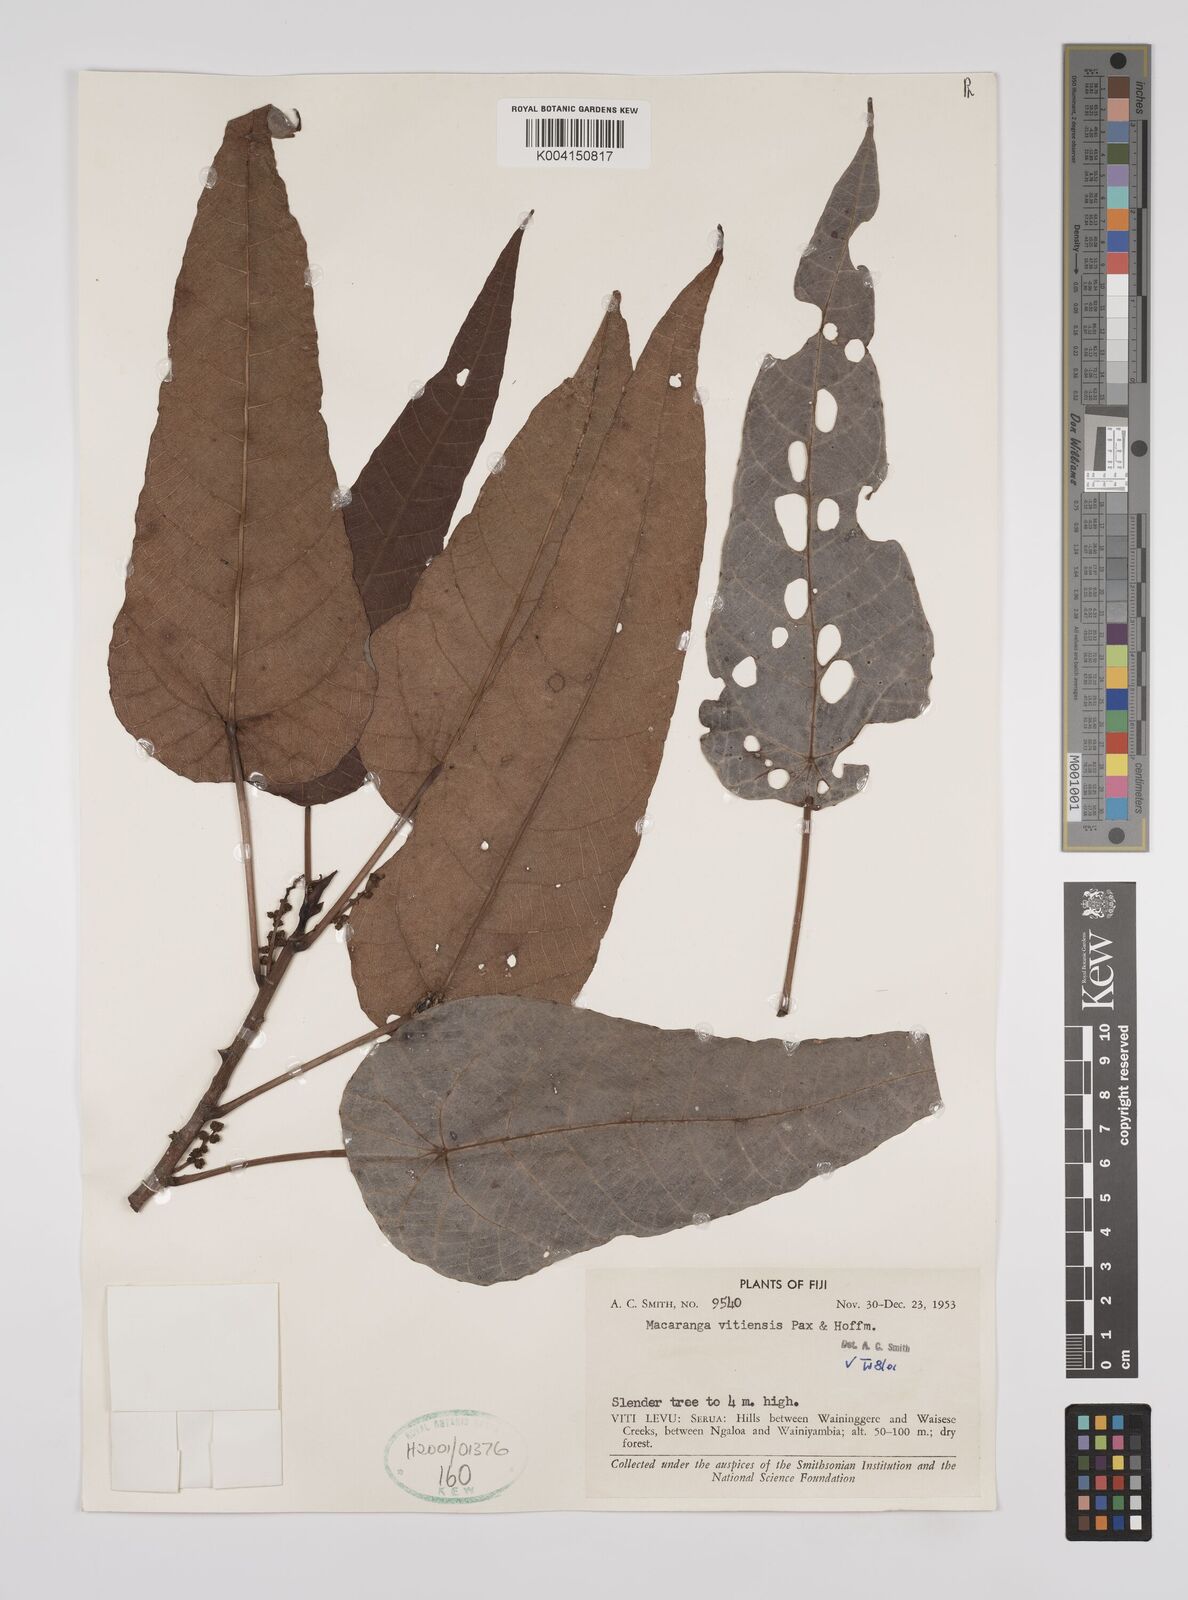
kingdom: Plantae
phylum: Tracheophyta
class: Magnoliopsida
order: Malpighiales
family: Euphorbiaceae
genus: Macaranga
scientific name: Macaranga vitiensis
